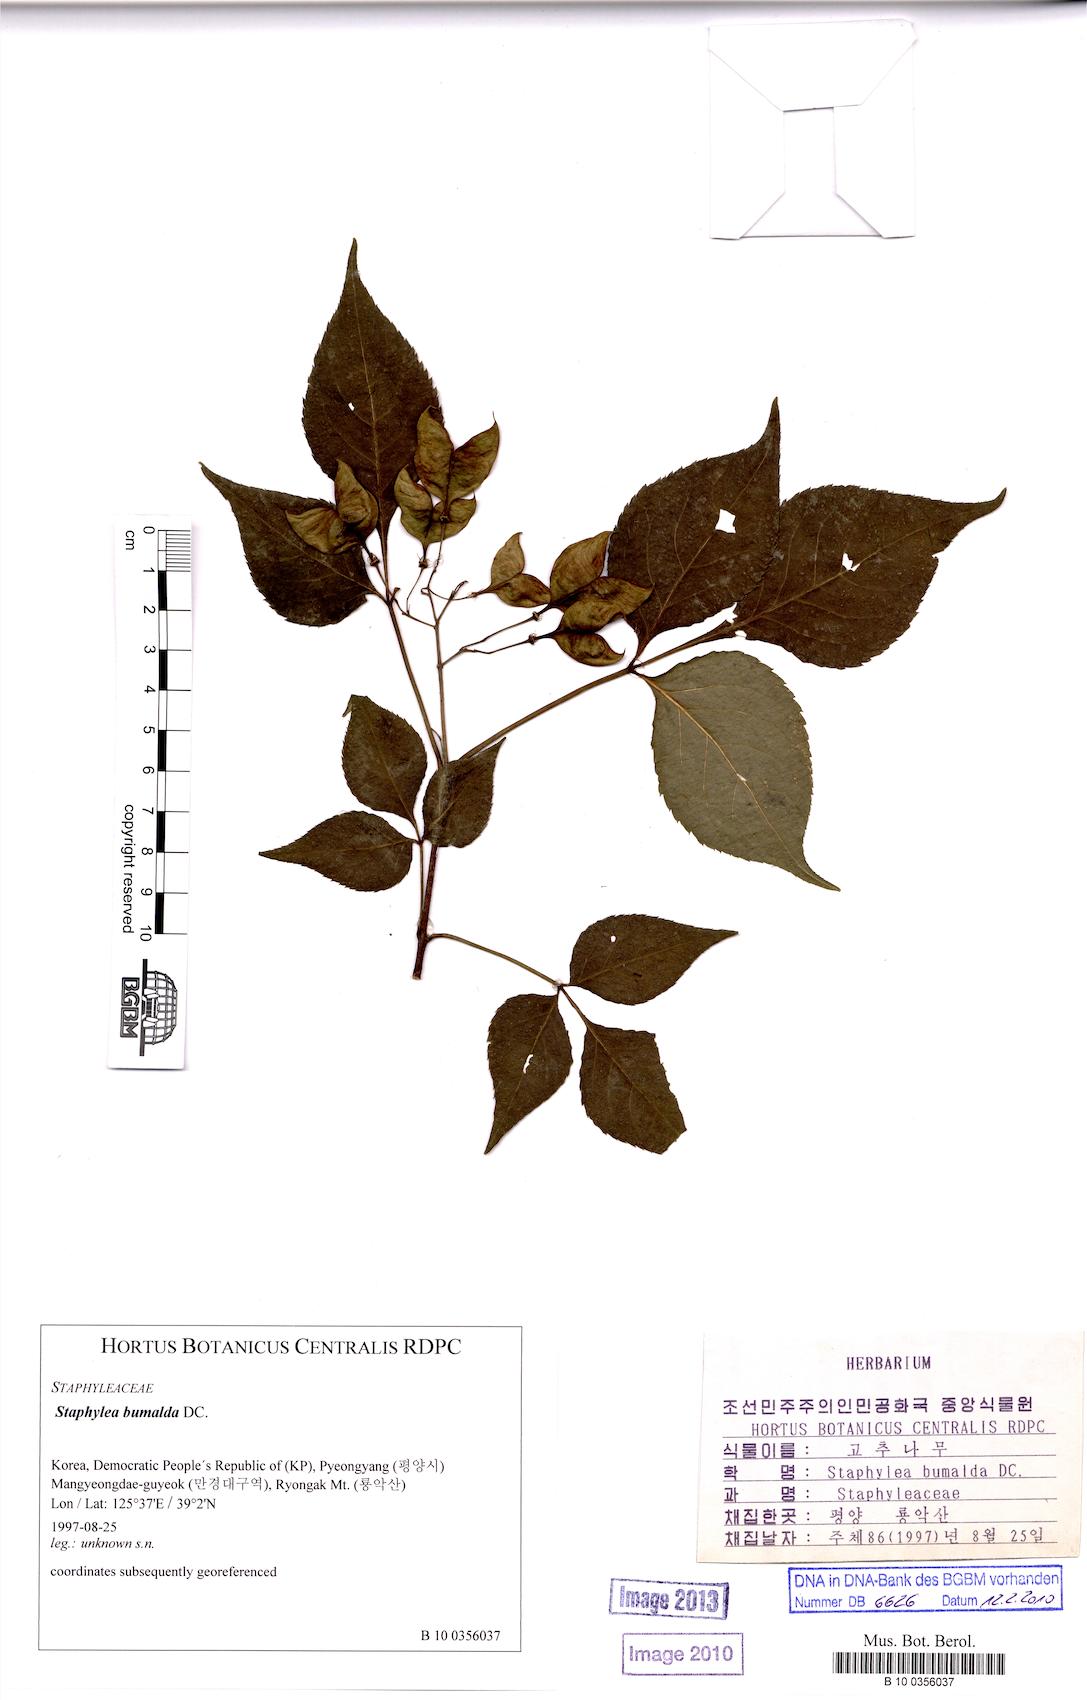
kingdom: Plantae
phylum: Tracheophyta
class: Magnoliopsida
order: Crossosomatales
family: Staphyleaceae
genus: Staphylea
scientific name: Staphylea bumalda
